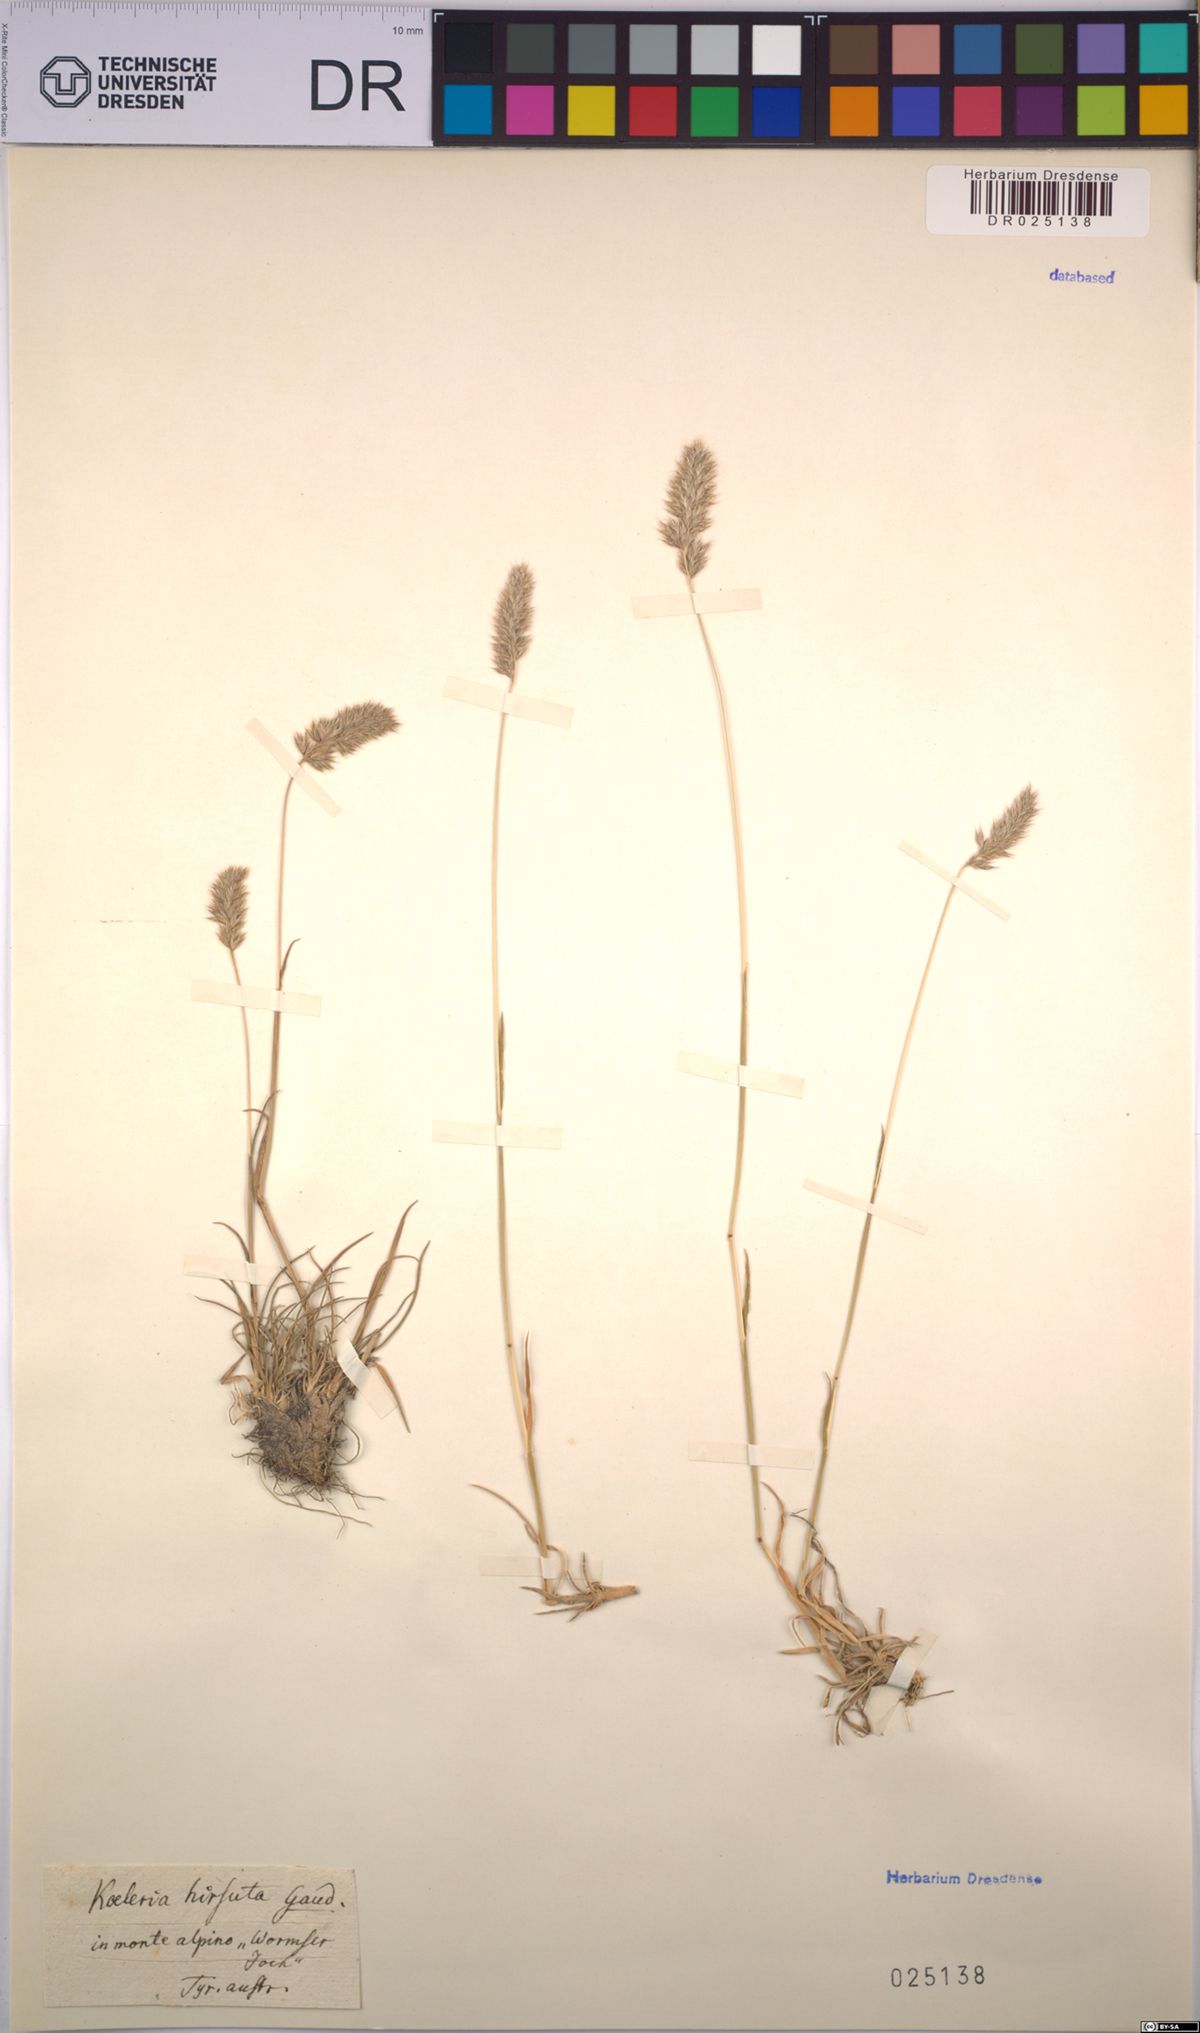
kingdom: Plantae
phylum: Tracheophyta
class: Liliopsida
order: Poales
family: Poaceae
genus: Koeleria
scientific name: Koeleria hirsuta
